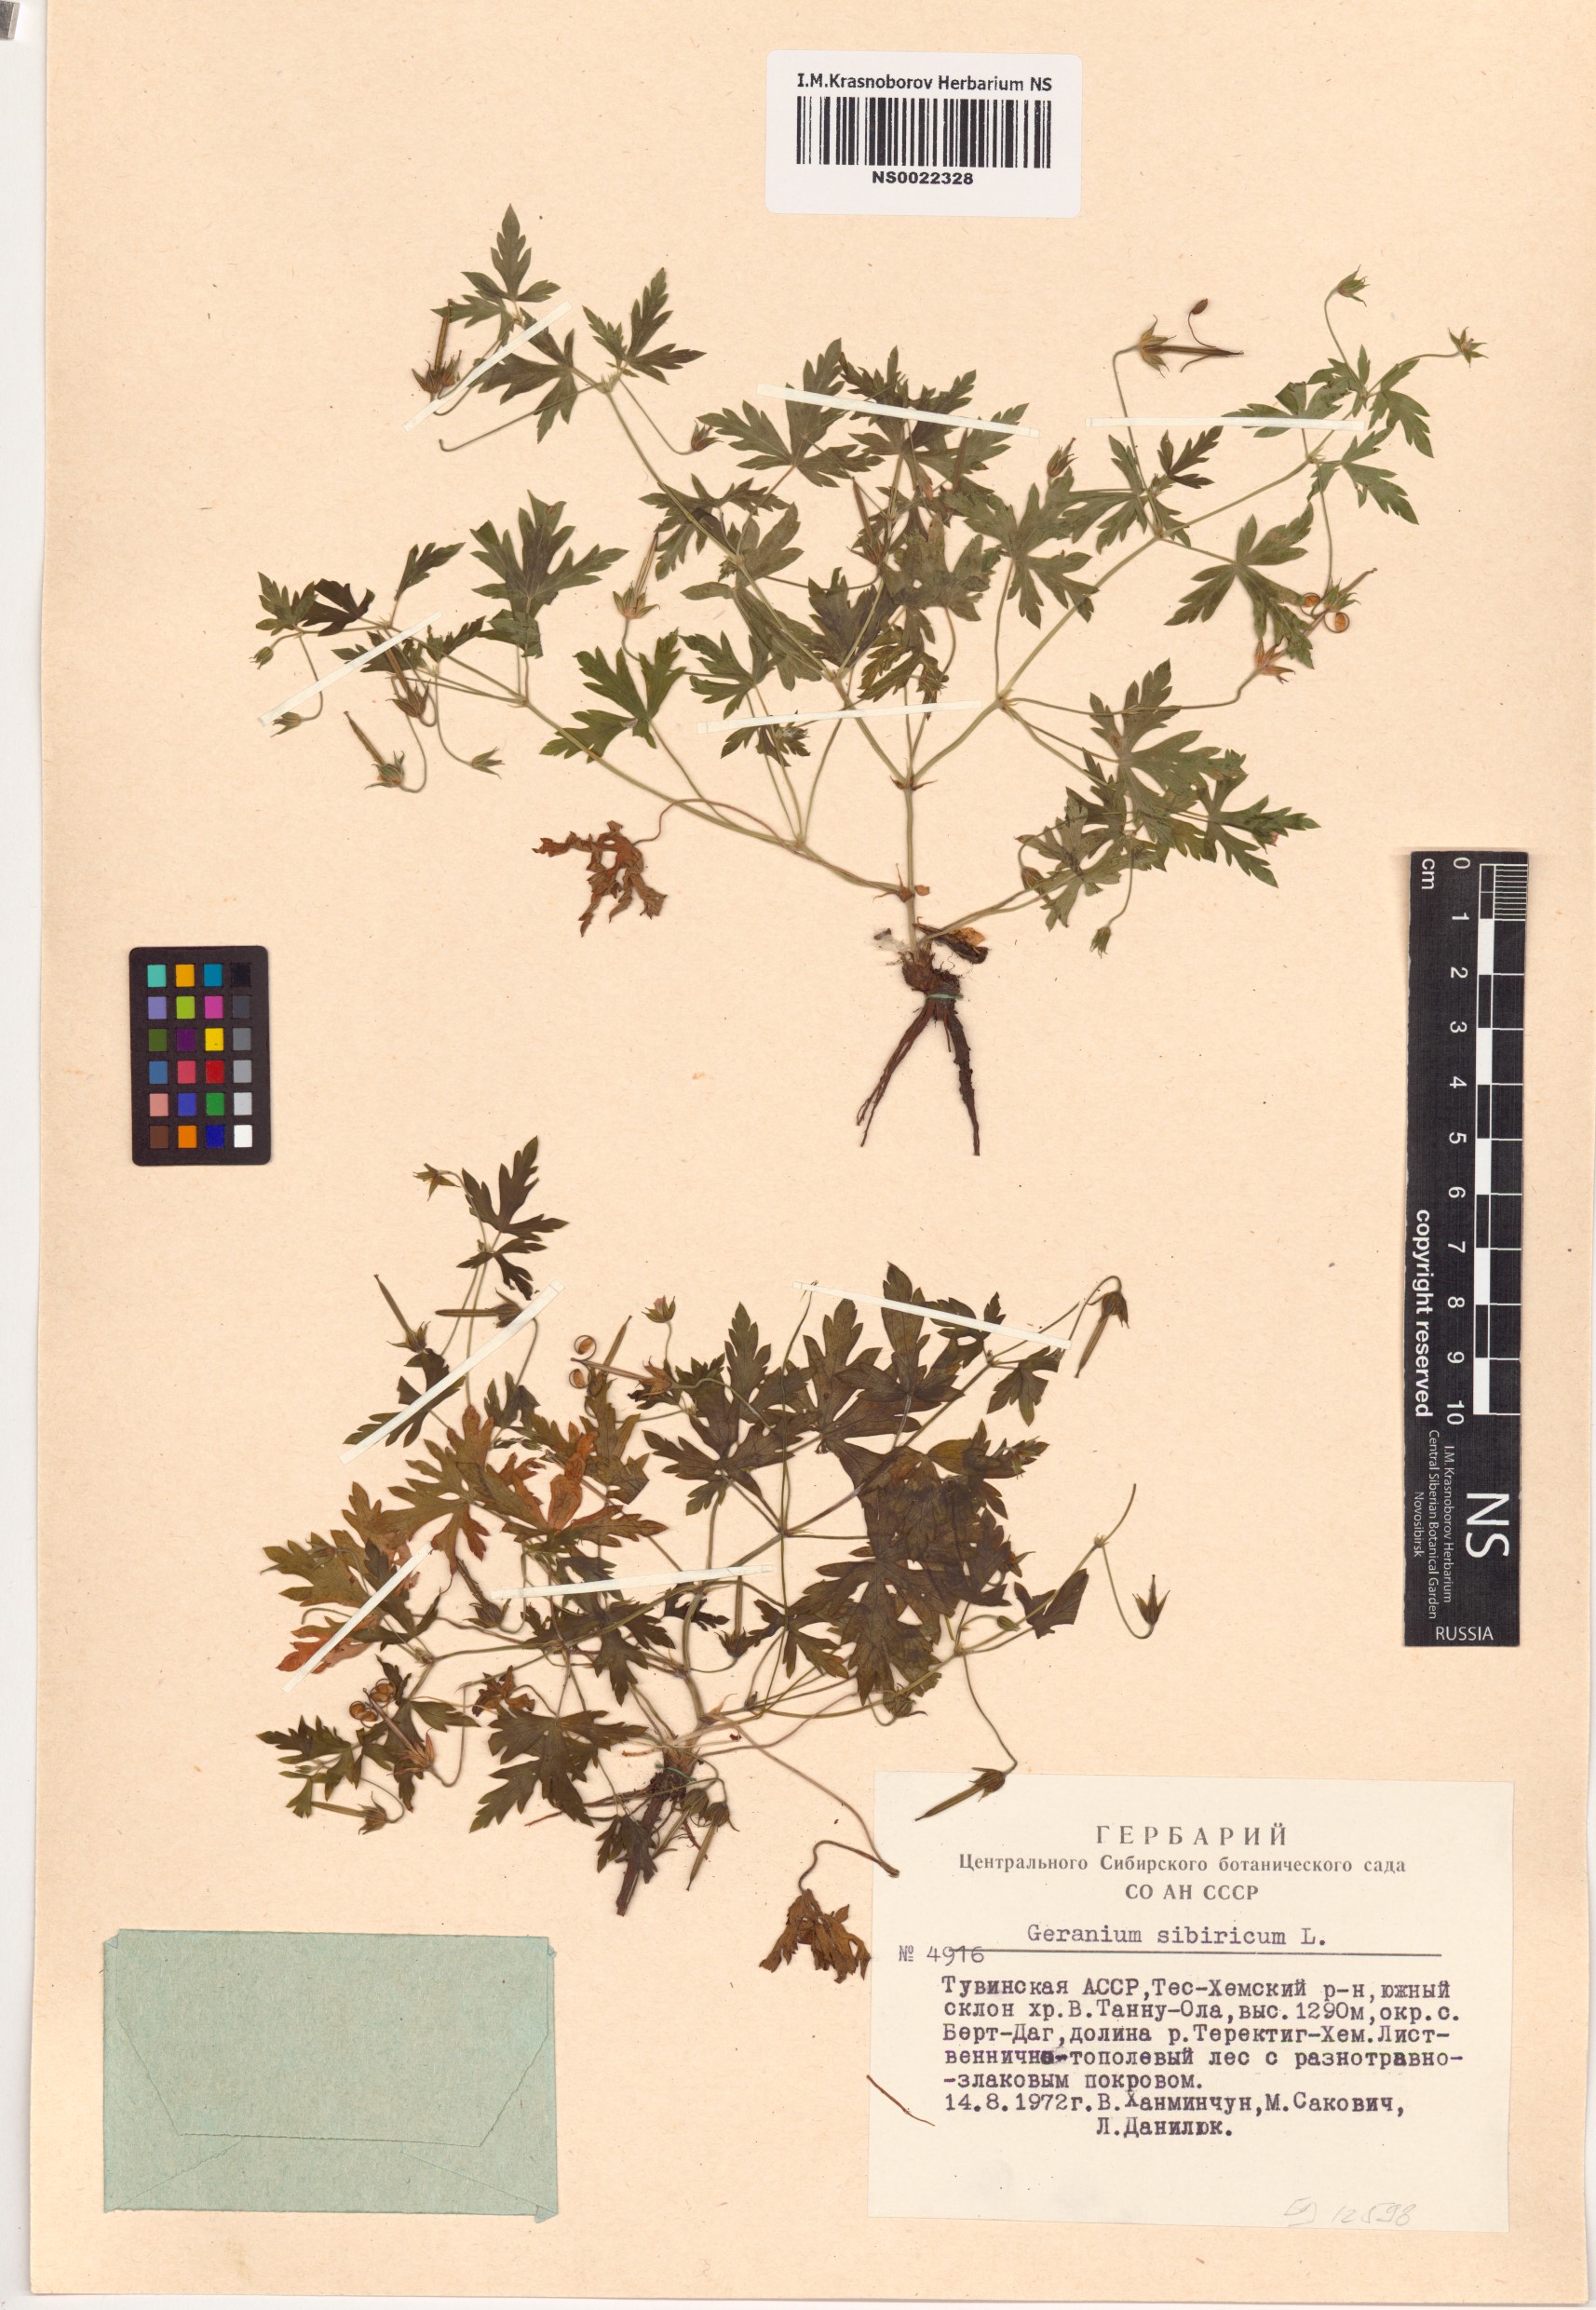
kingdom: Plantae
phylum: Tracheophyta
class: Magnoliopsida
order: Geraniales
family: Geraniaceae
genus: Geranium
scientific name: Geranium sibiricum
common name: Siberian crane's-bill
